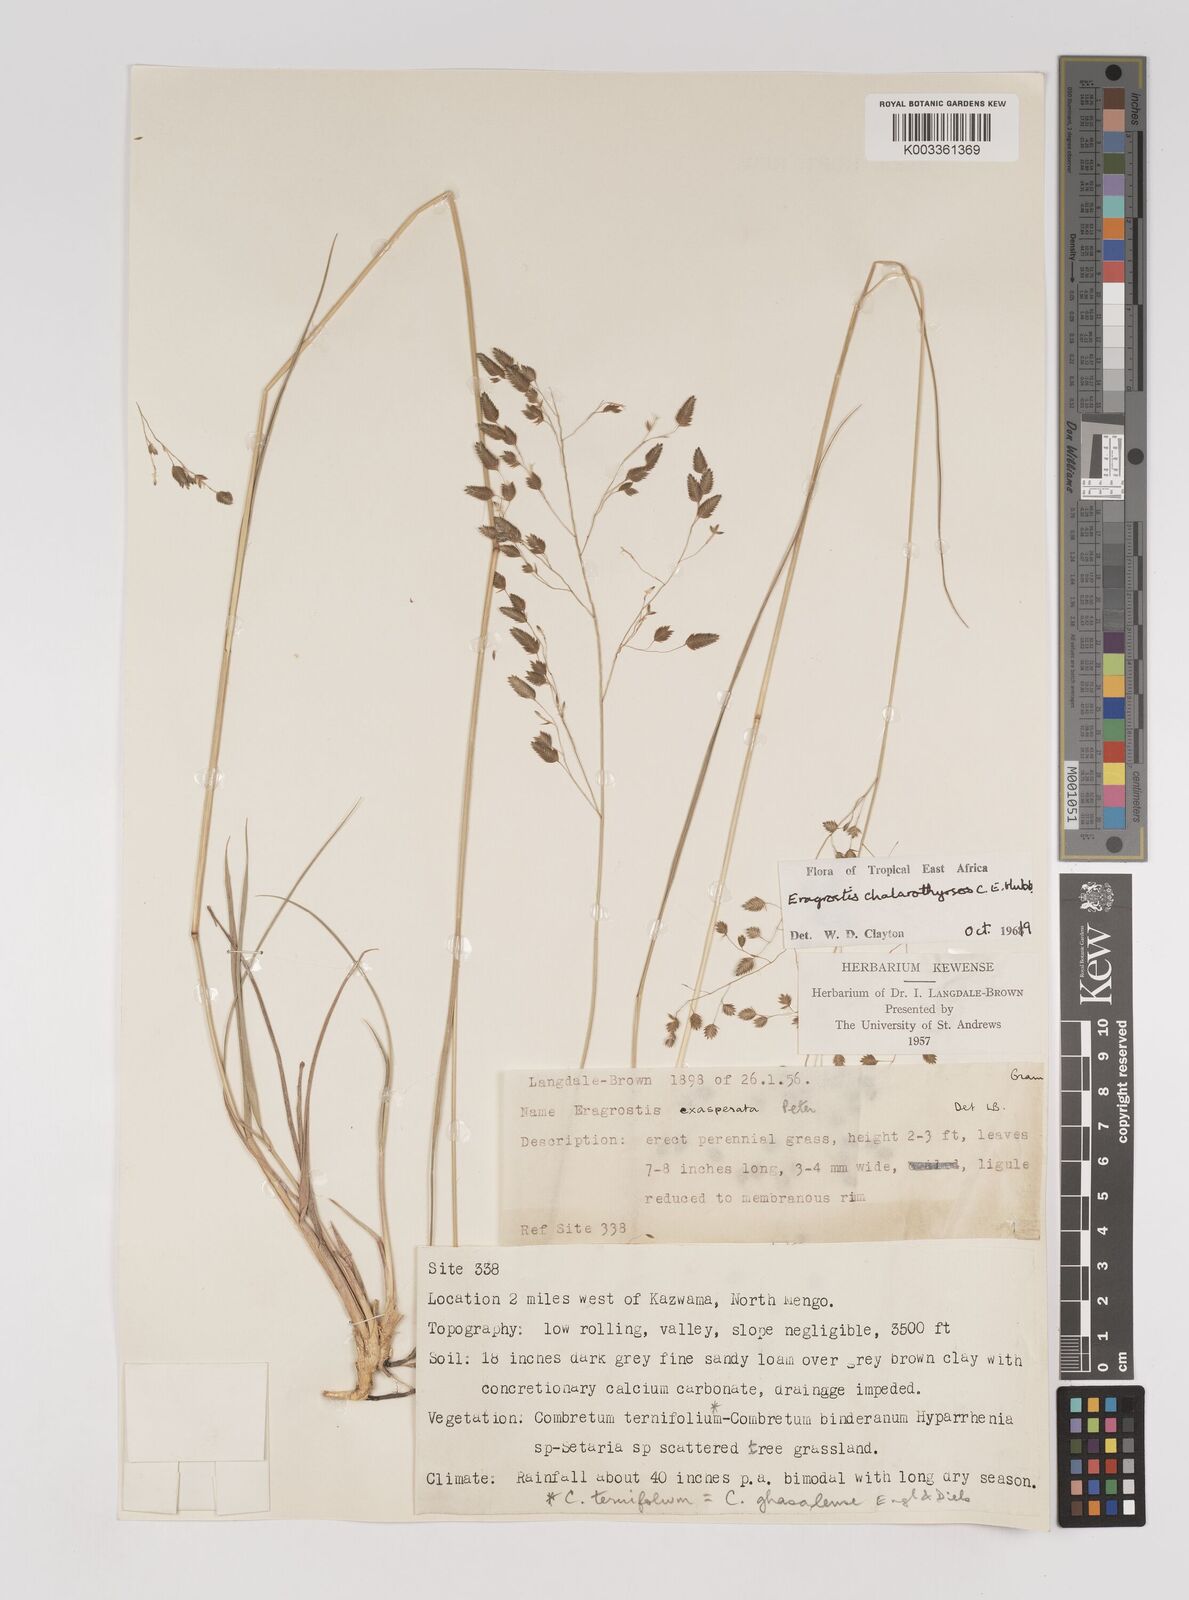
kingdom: Plantae
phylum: Tracheophyta
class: Liliopsida
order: Poales
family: Poaceae
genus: Eragrostis
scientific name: Eragrostis chalarothyrsos
